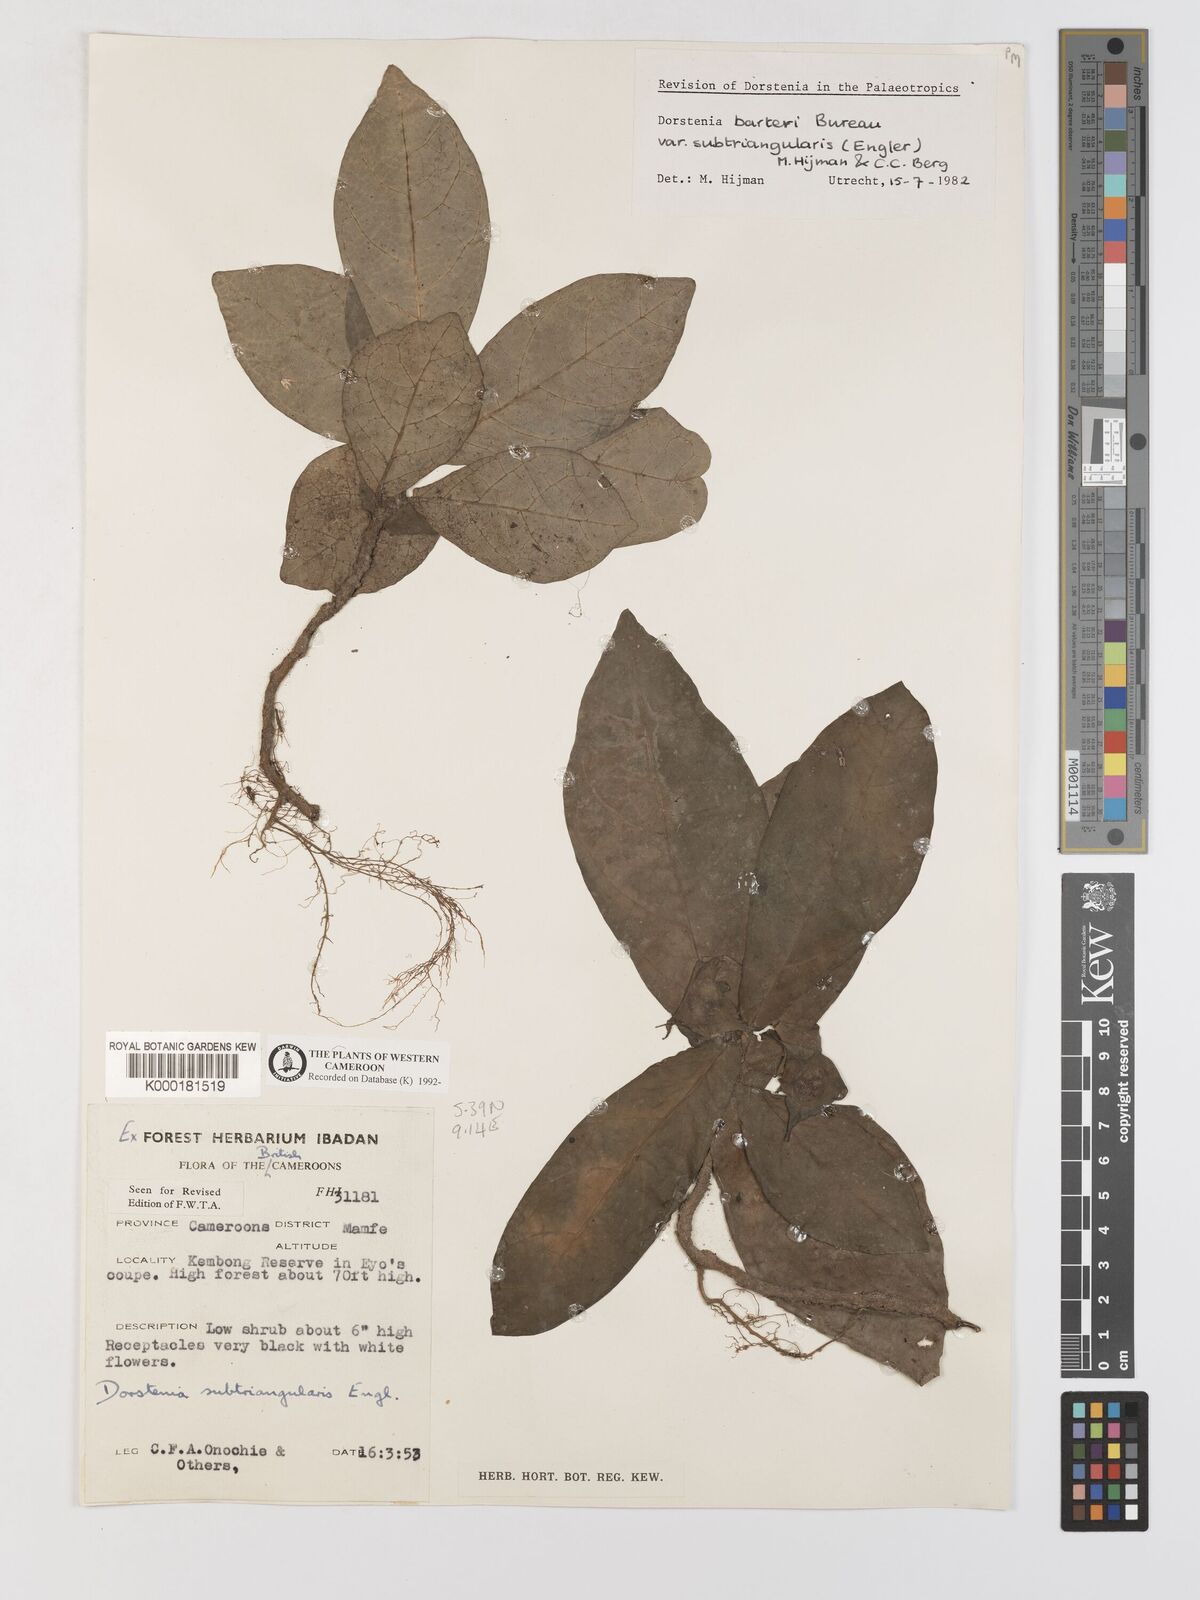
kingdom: Plantae
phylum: Tracheophyta
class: Magnoliopsida
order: Rosales
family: Moraceae
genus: Dorstenia
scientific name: Dorstenia barteri
